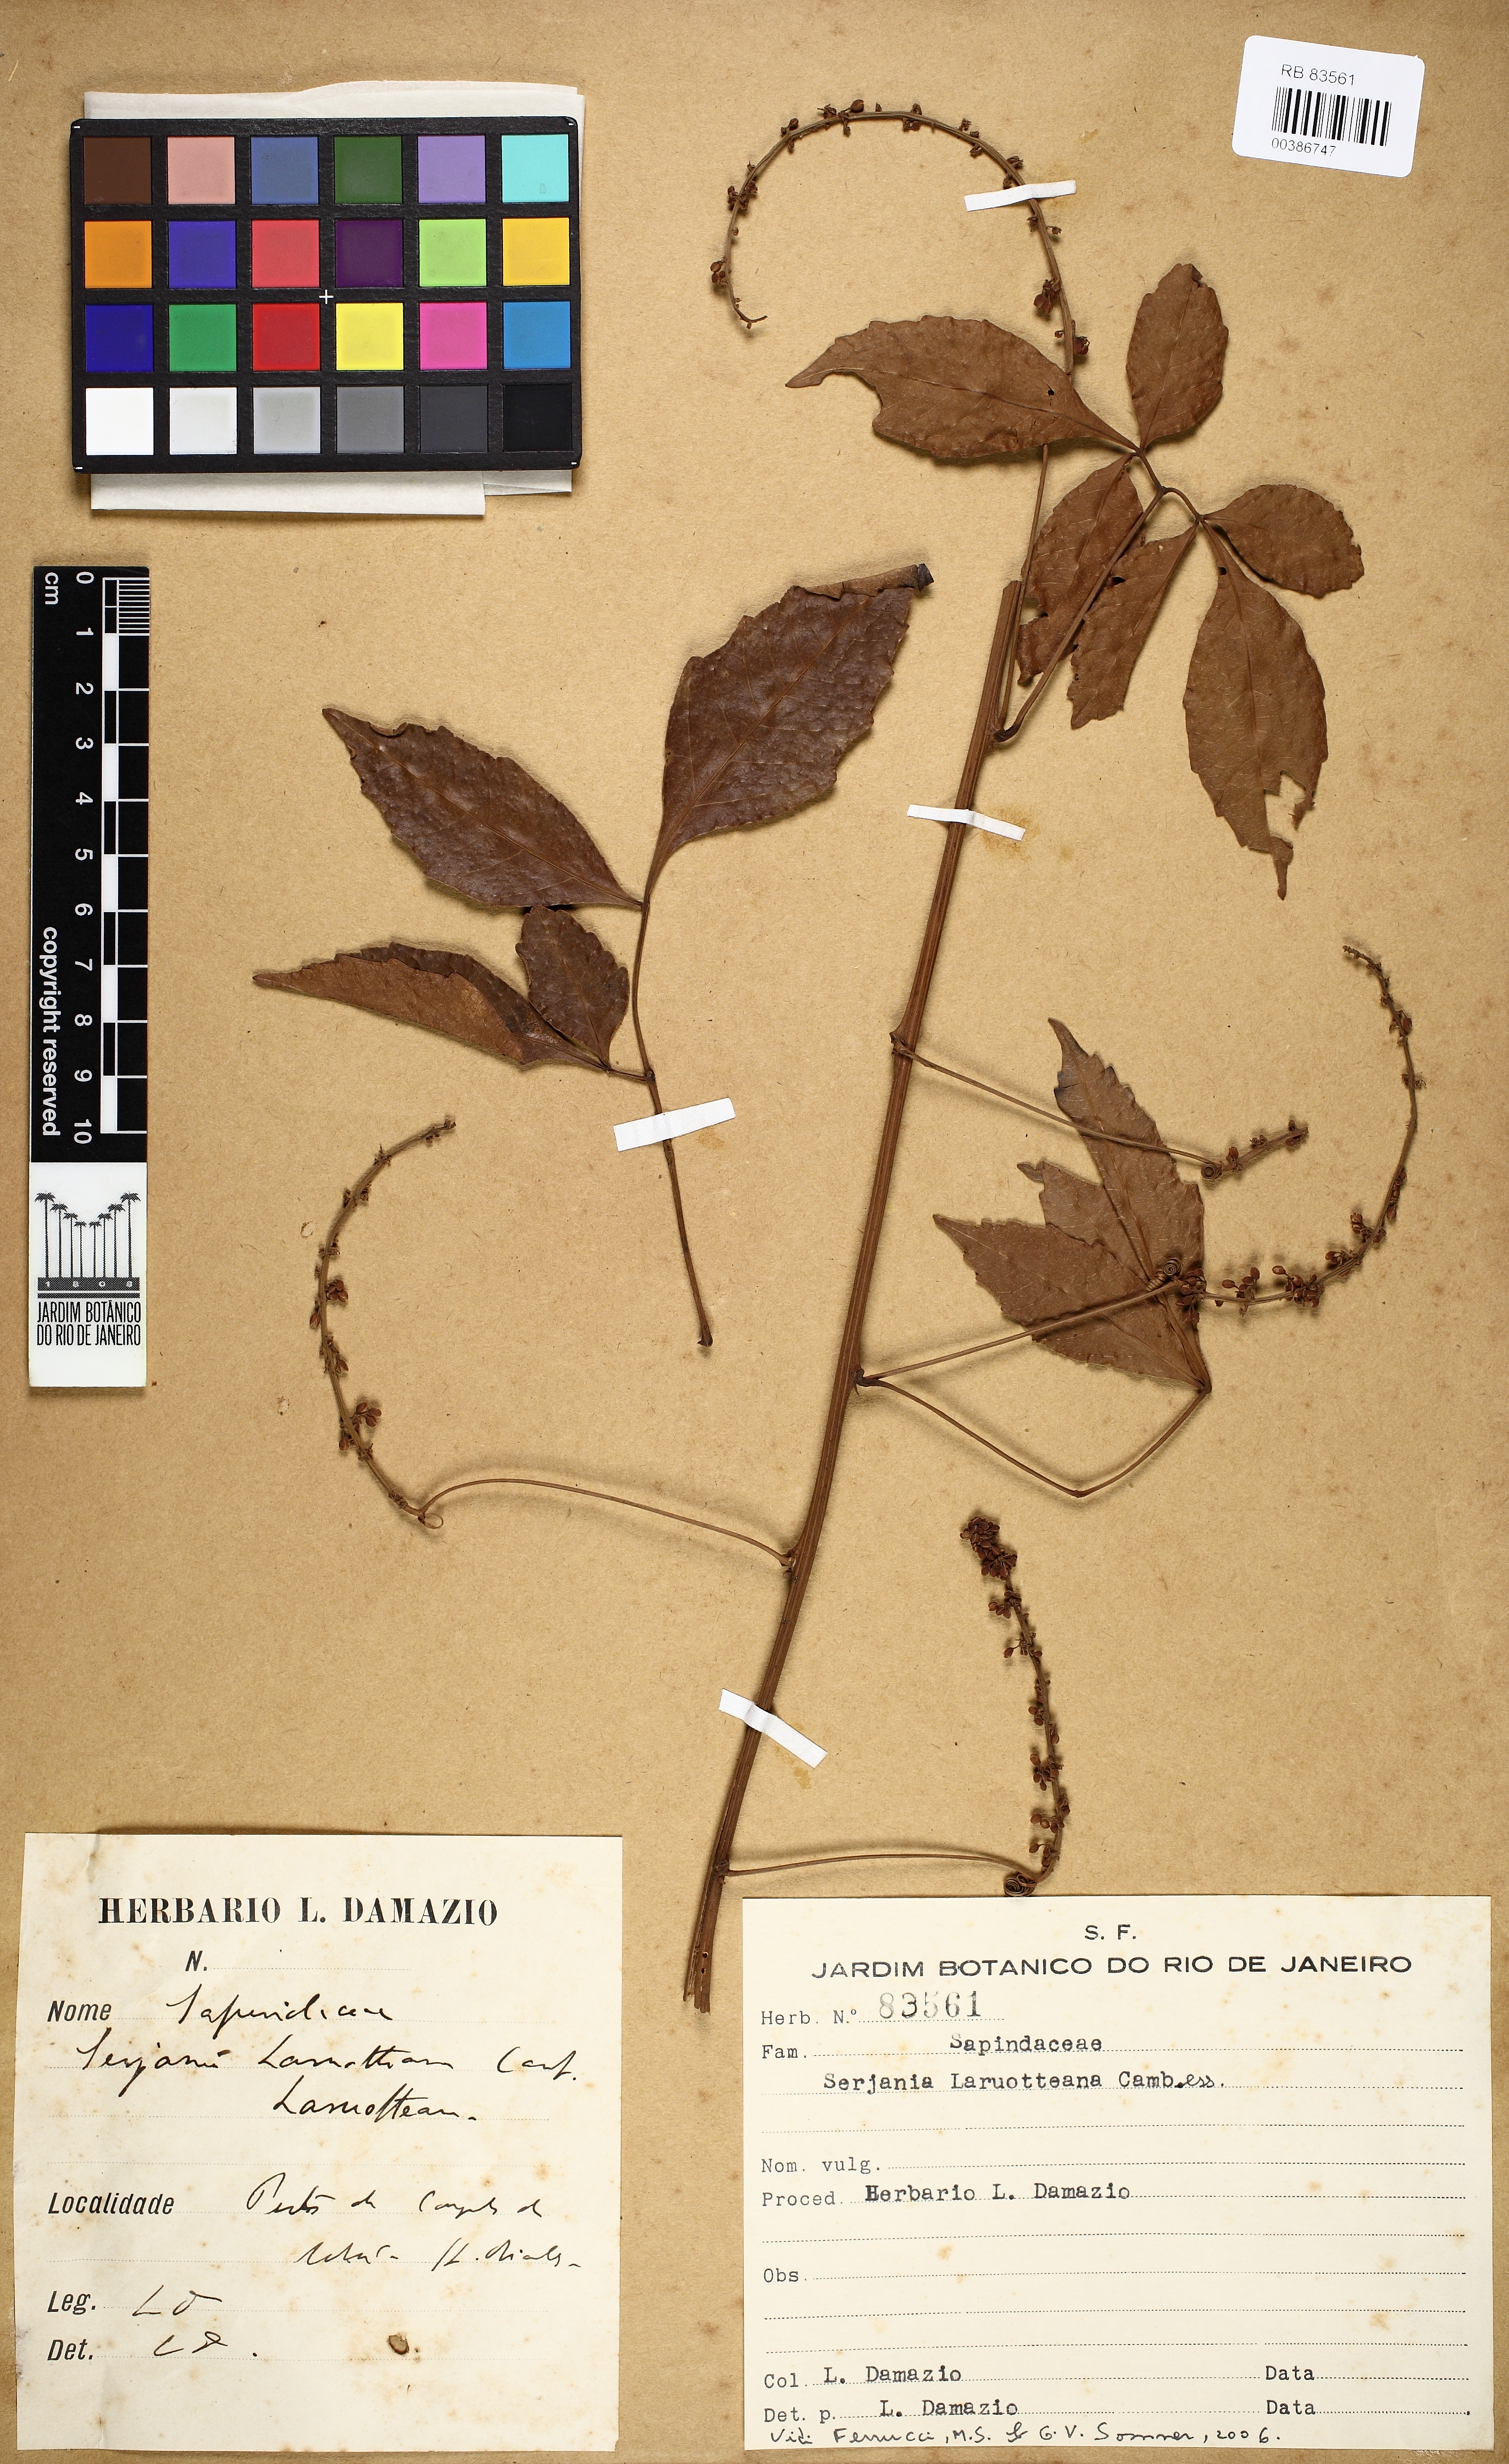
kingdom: Plantae
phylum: Tracheophyta
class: Magnoliopsida
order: Sapindales
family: Sapindaceae
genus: Serjania
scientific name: Serjania laruotteana
